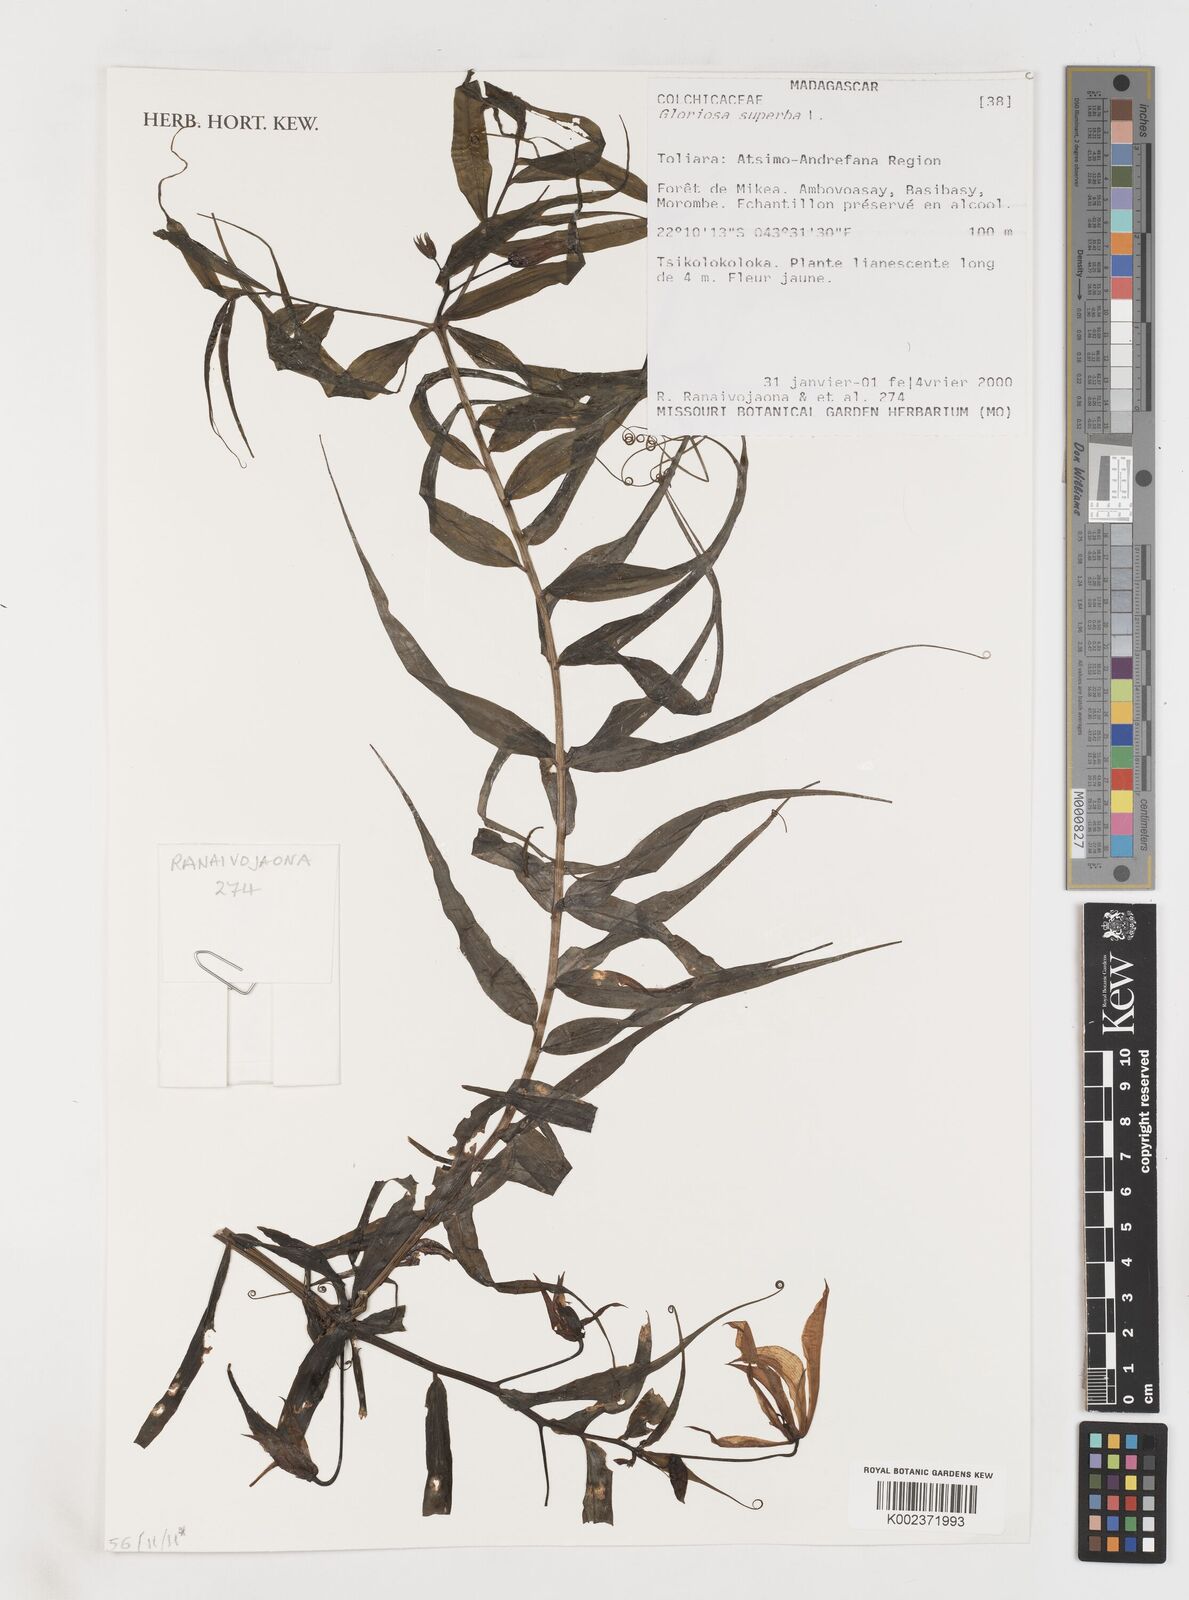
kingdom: Plantae
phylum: Tracheophyta
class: Liliopsida
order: Liliales
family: Colchicaceae
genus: Gloriosa
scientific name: Gloriosa superba
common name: Flame lily
